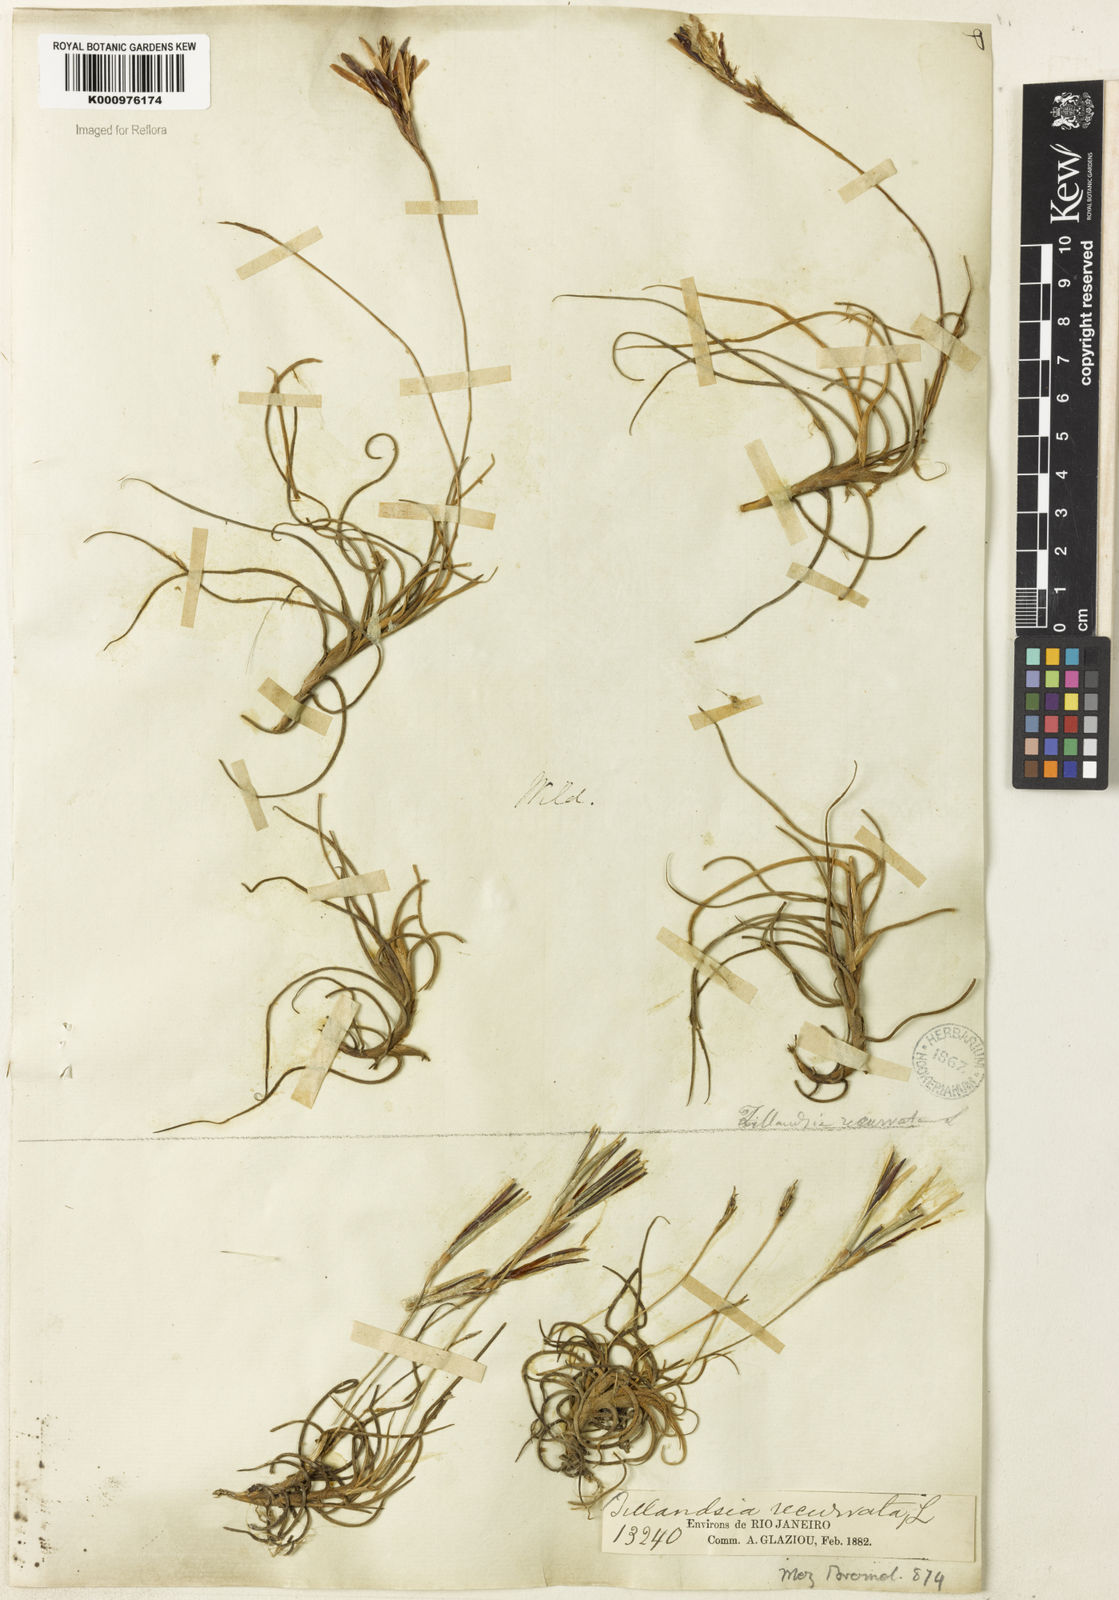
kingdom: Plantae
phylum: Tracheophyta
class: Liliopsida
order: Poales
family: Bromeliaceae
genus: Tillandsia
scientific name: Tillandsia recurvata
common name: Small ballmoss
